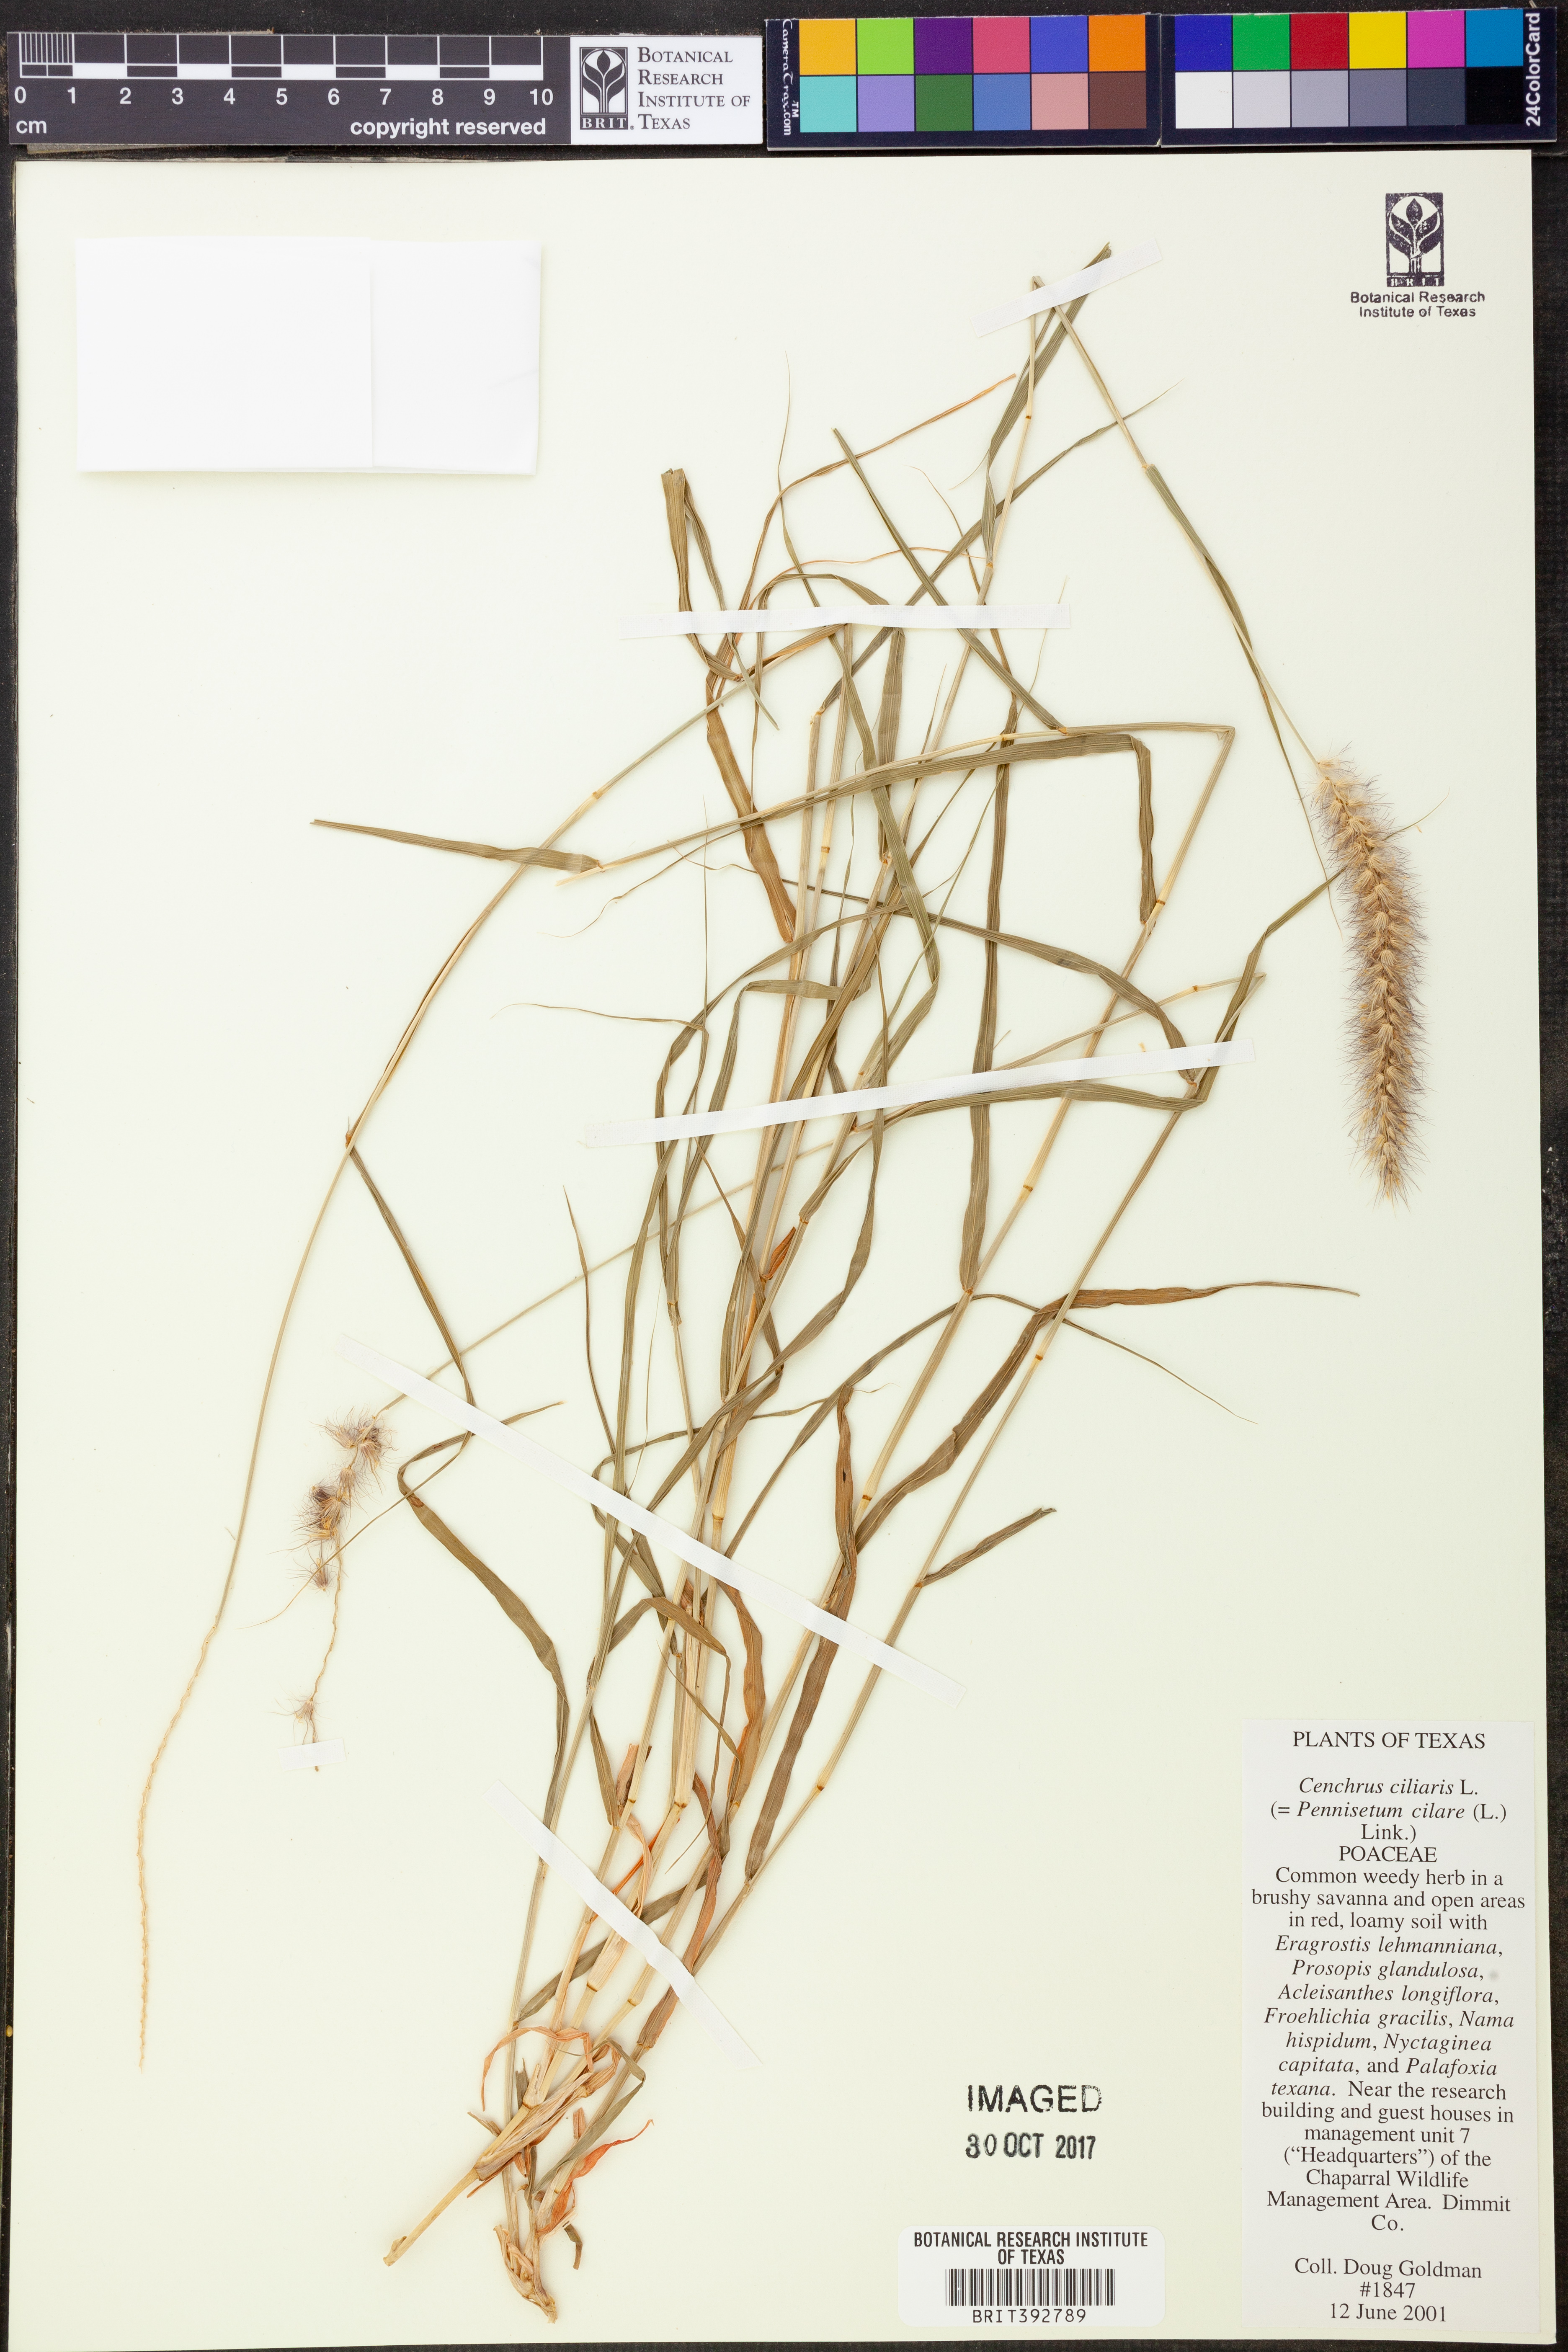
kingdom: Plantae
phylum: Tracheophyta
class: Liliopsida
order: Poales
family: Poaceae
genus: Cenchrus
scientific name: Cenchrus ciliaris
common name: Buffelgrass
